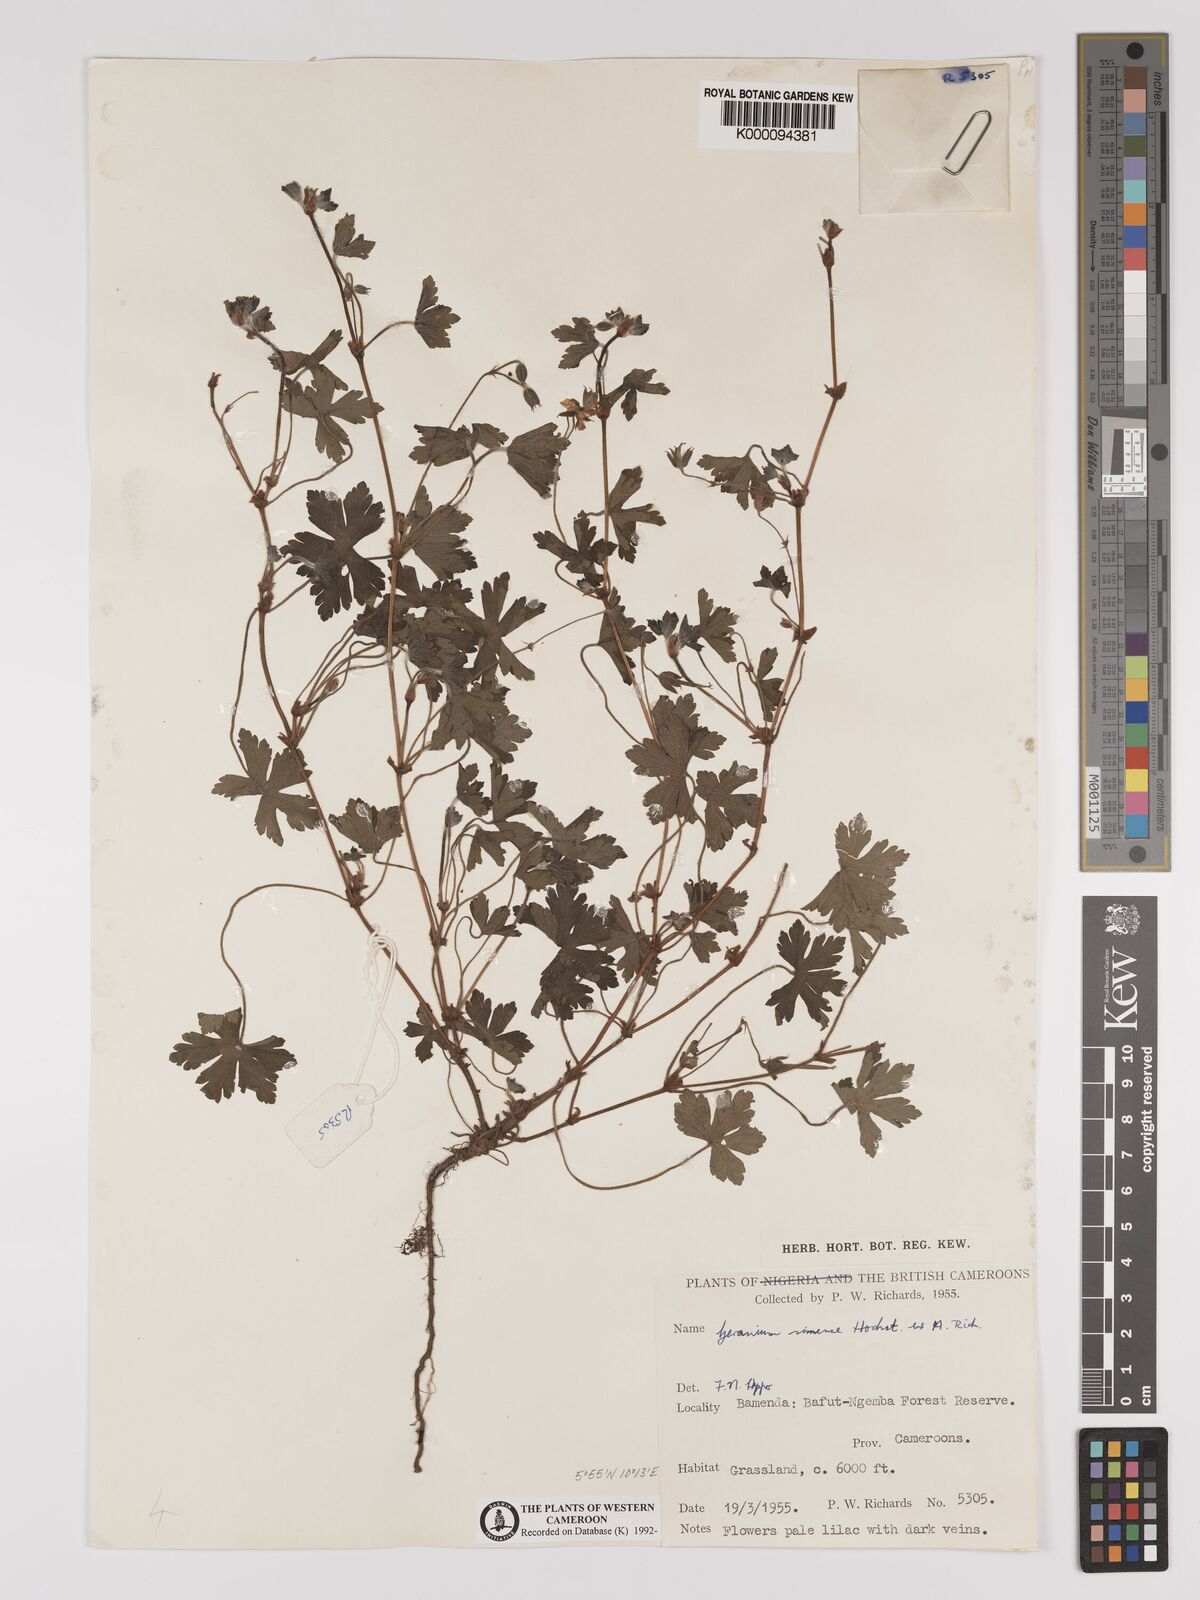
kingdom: Plantae
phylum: Tracheophyta
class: Magnoliopsida
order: Geraniales
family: Geraniaceae
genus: Geranium
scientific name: Geranium arabicum
